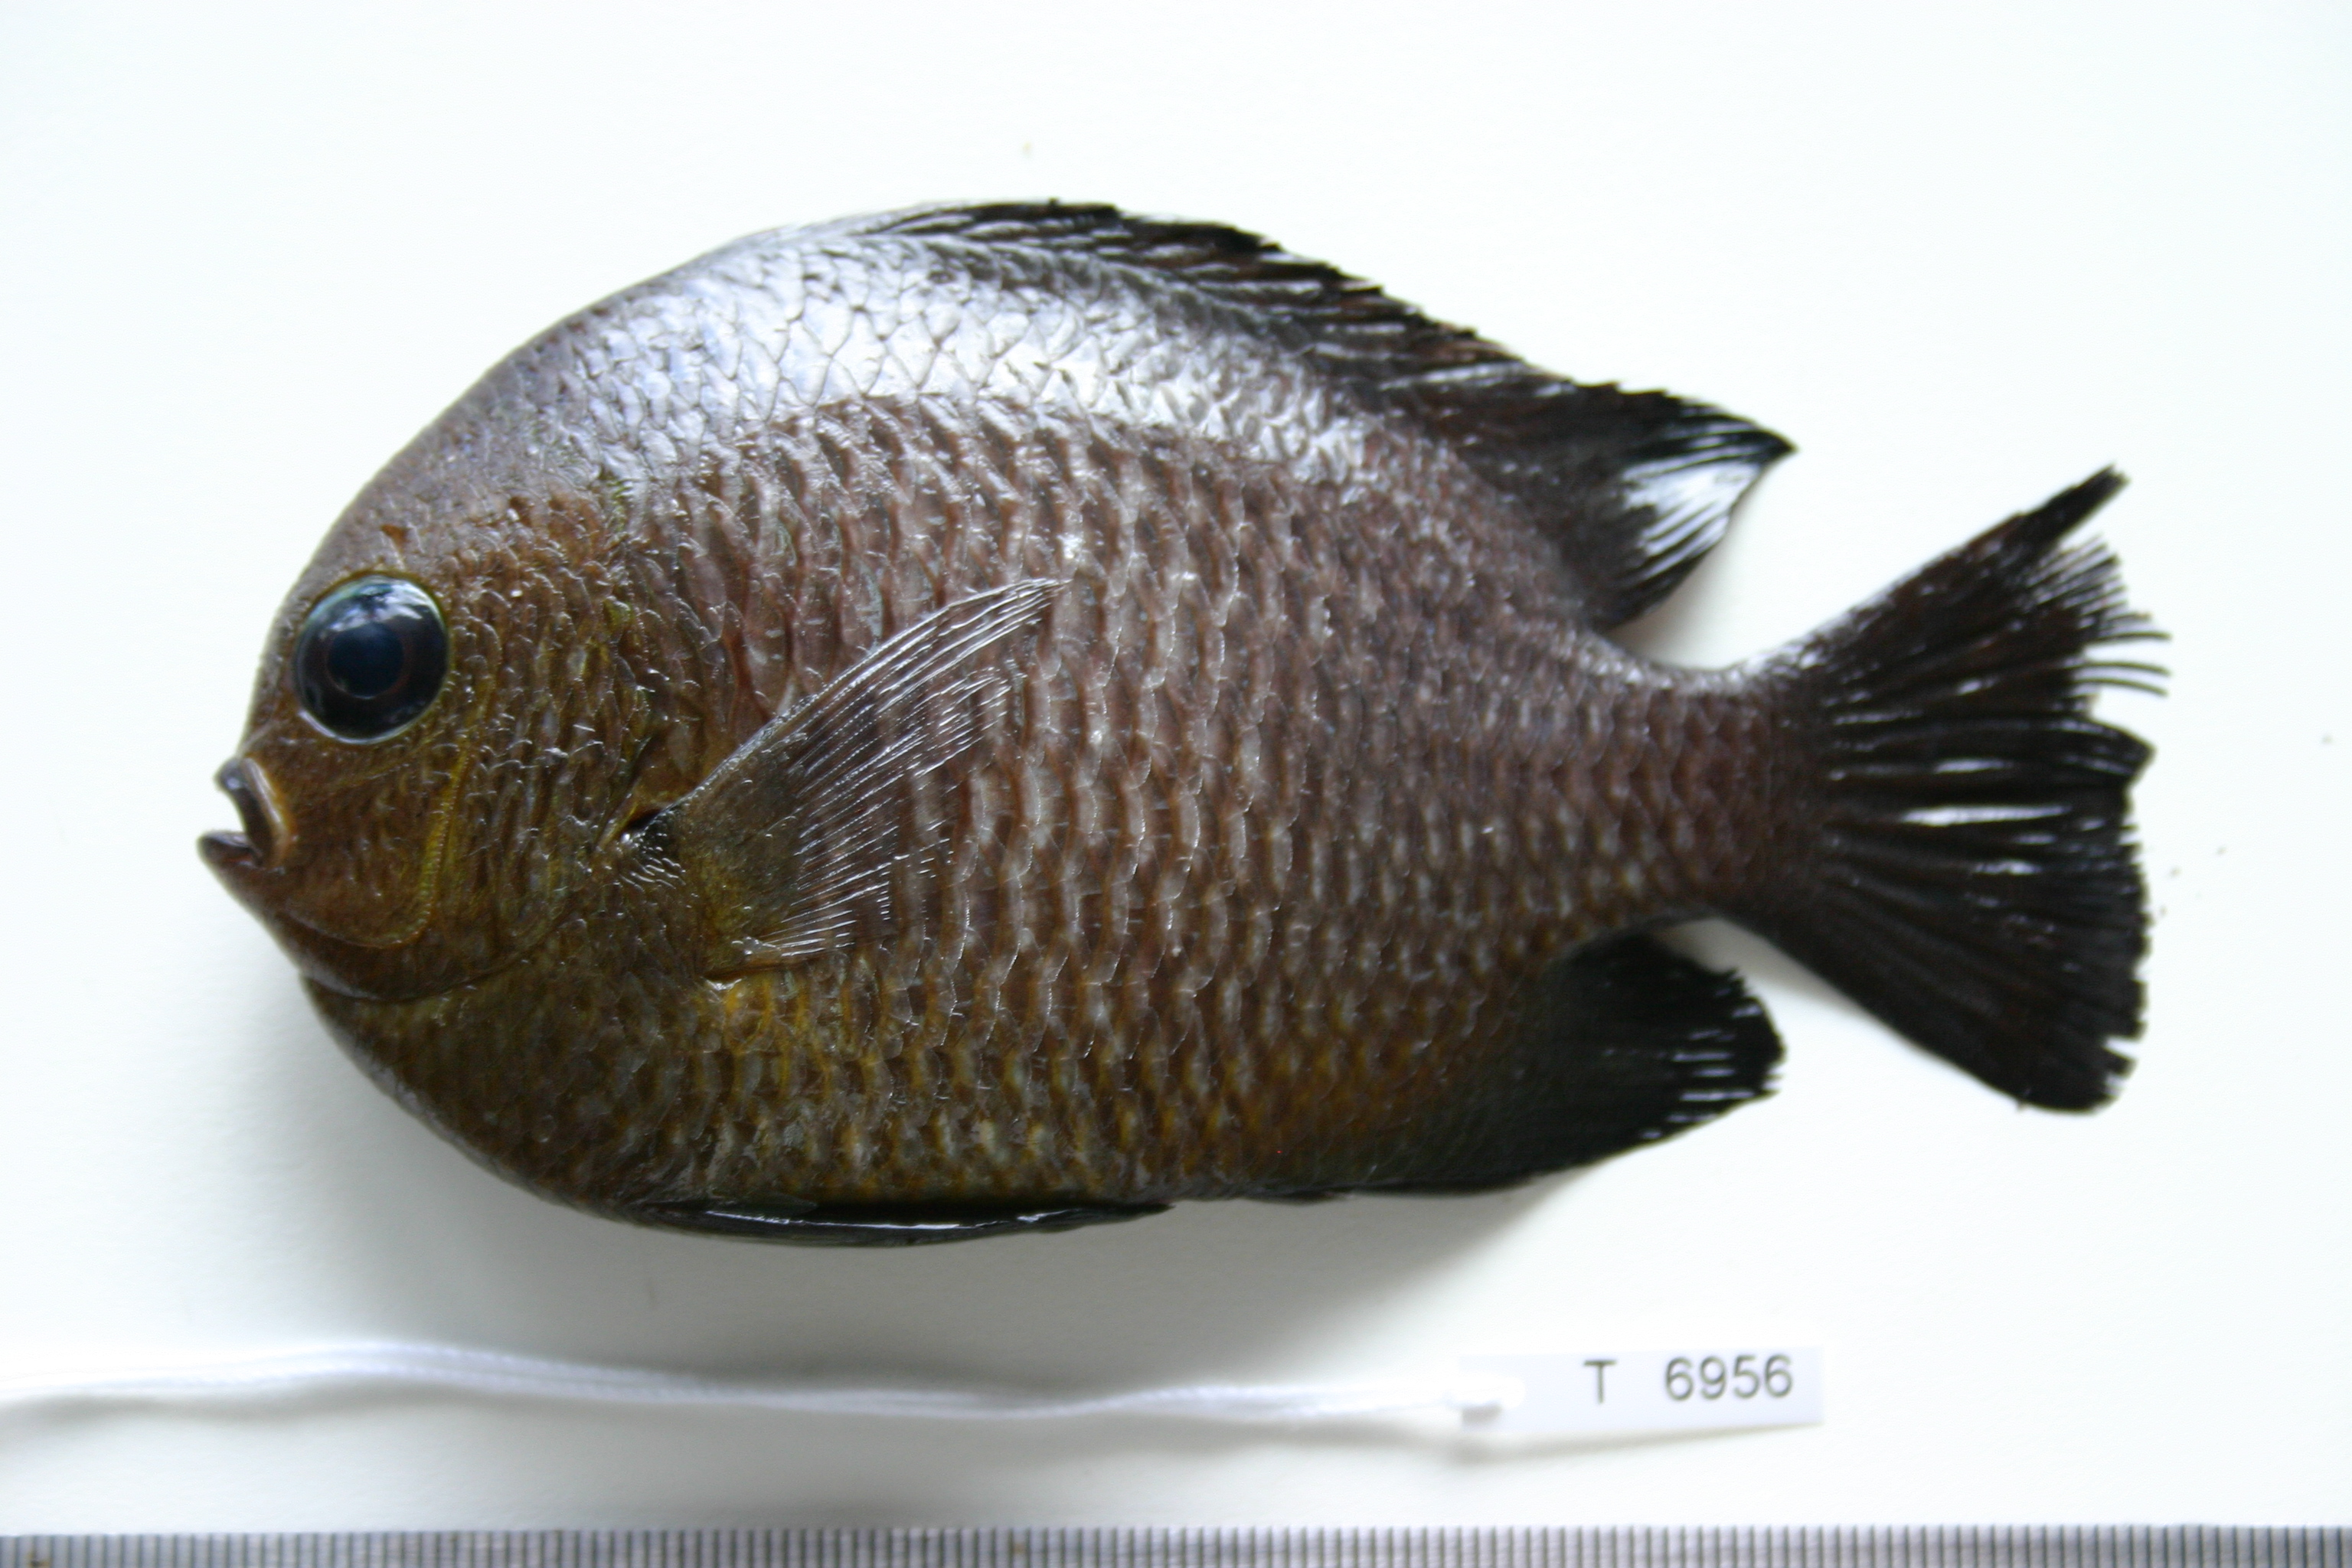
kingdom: Animalia
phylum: Chordata
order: Perciformes
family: Pomacentridae
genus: Dascyllus
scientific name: Dascyllus trimaculatus
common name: Threespot dascyllus
